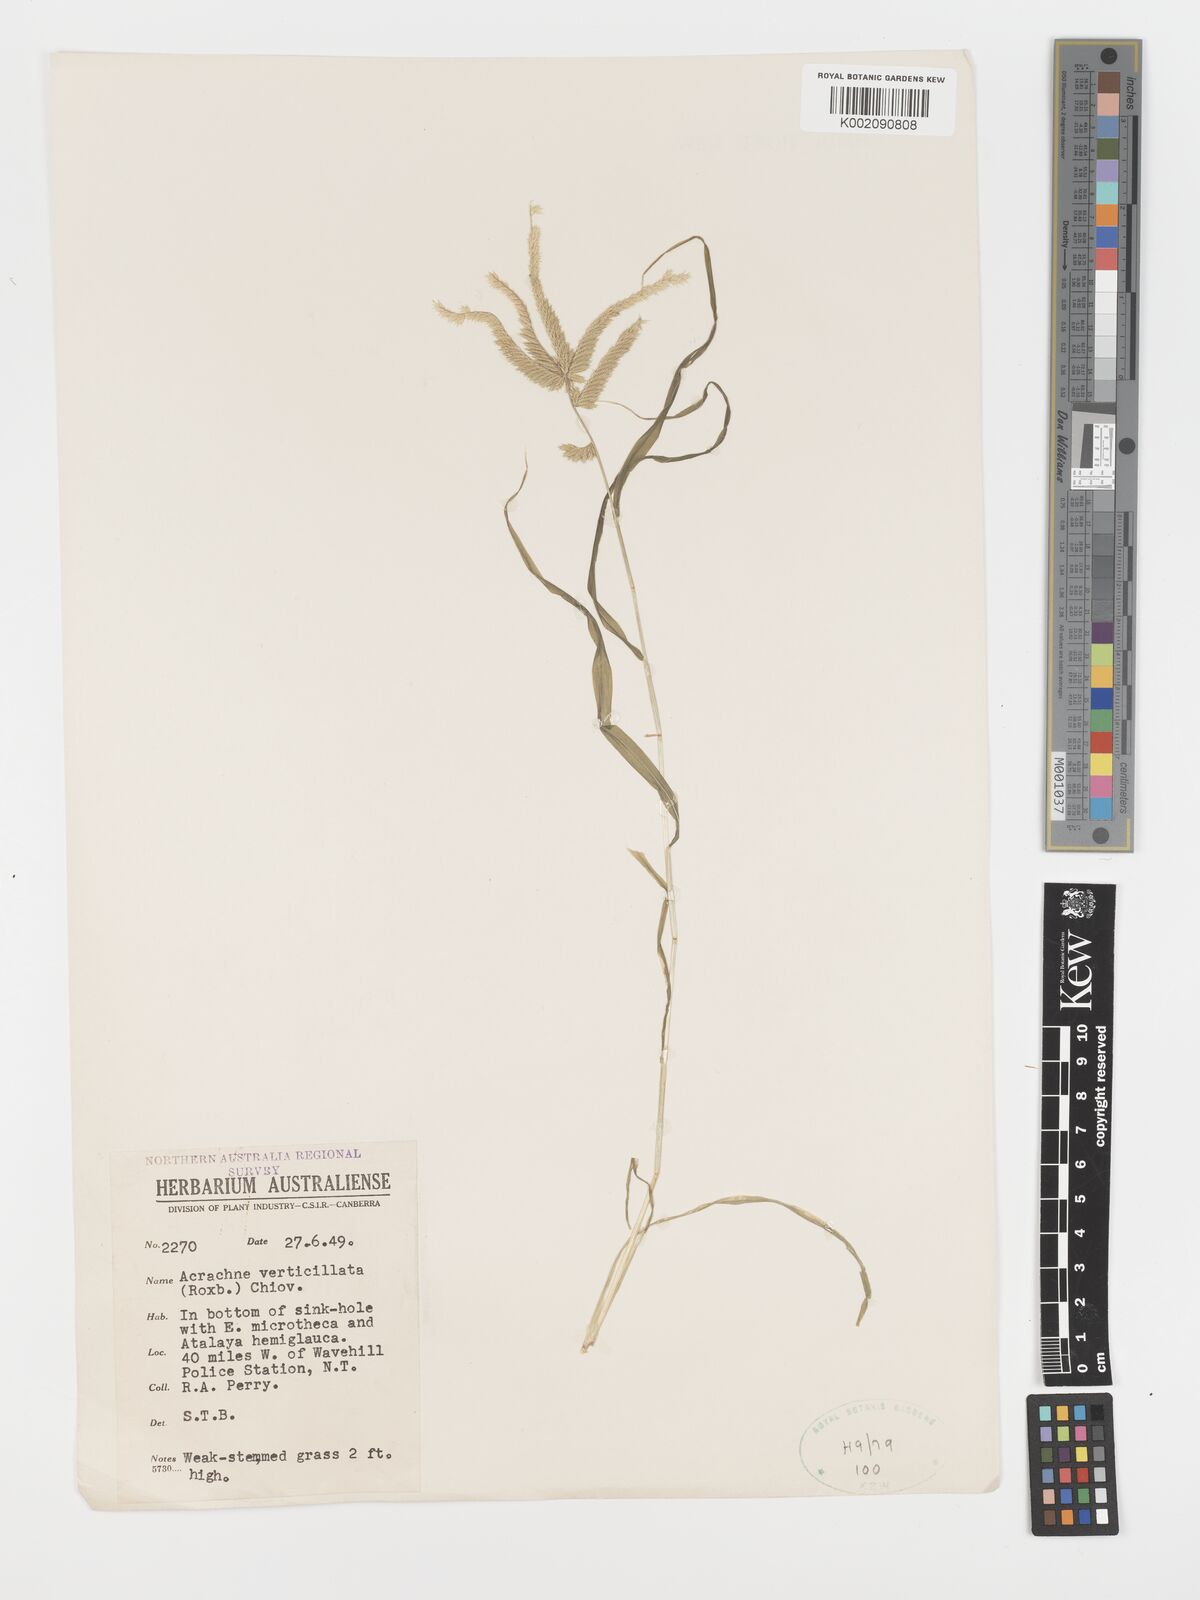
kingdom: Plantae
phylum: Tracheophyta
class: Liliopsida
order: Poales
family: Poaceae
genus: Acrachne
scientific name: Acrachne racemosa
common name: Goosegrass
